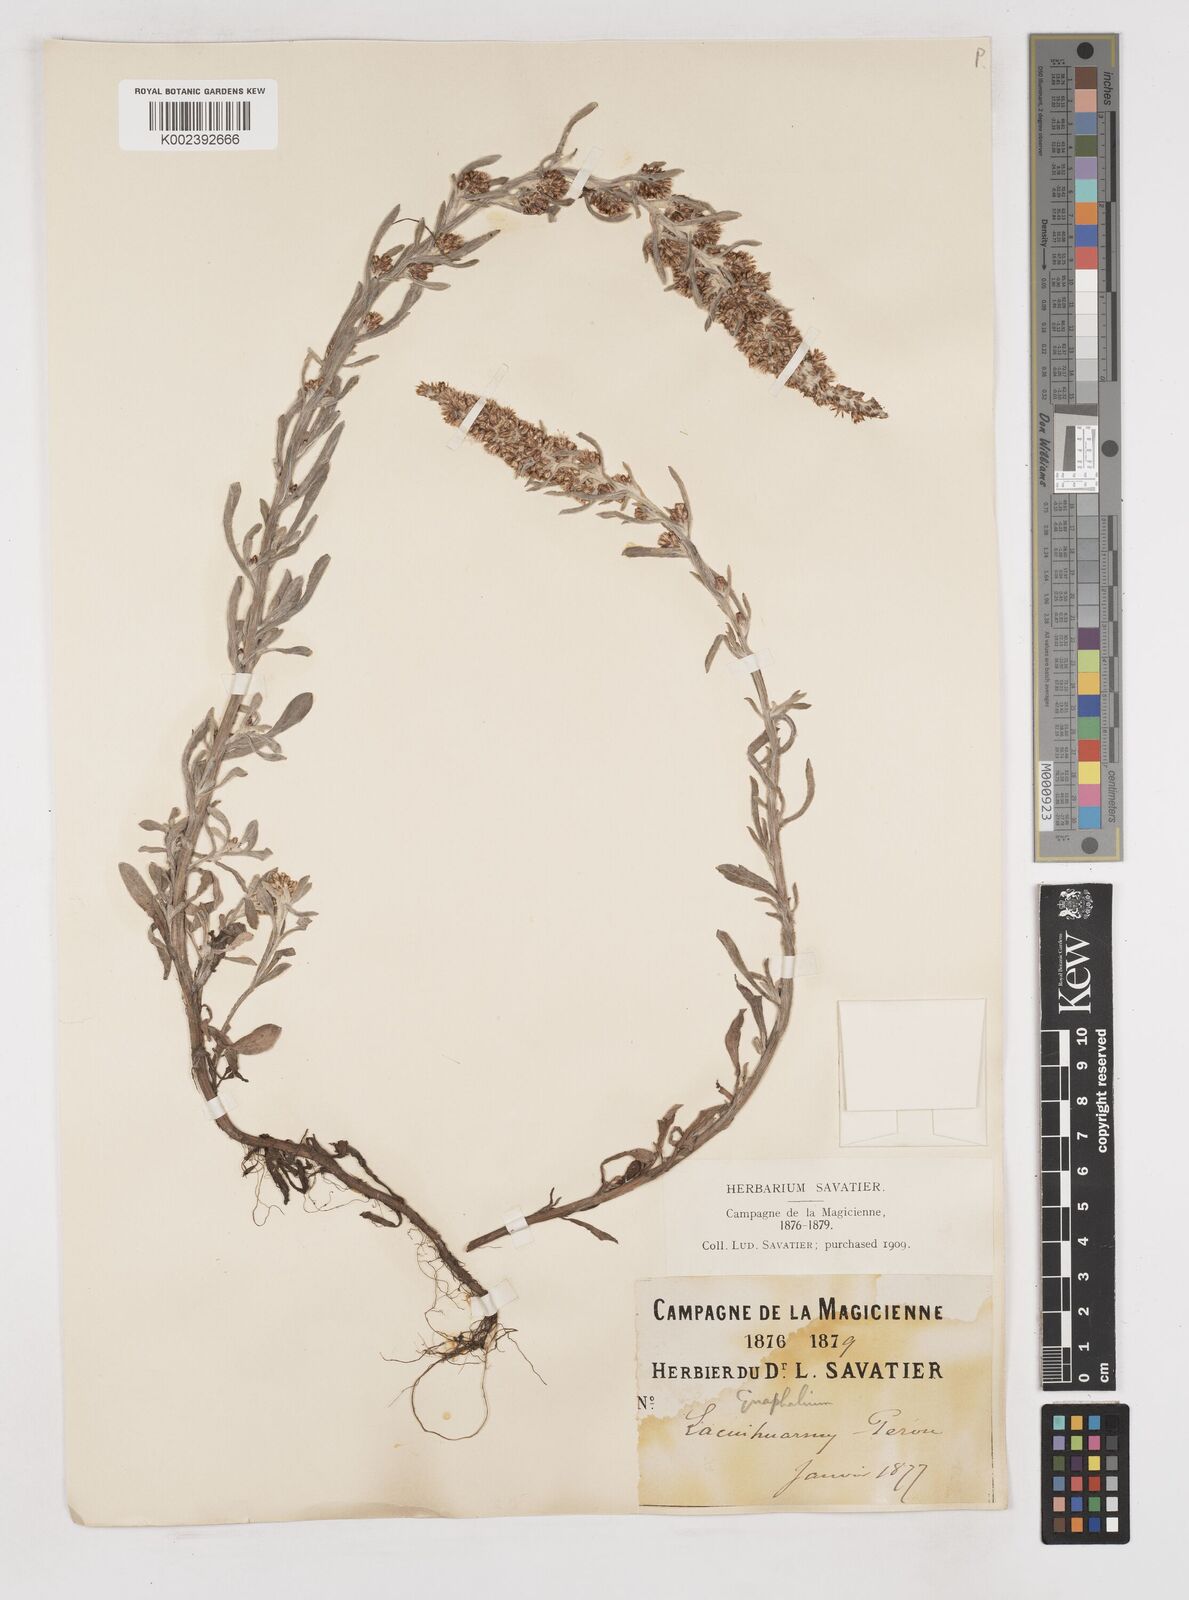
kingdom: Plantae
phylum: Tracheophyta
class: Magnoliopsida
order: Asterales
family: Asteraceae
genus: Gnaphalium
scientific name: Gnaphalium
